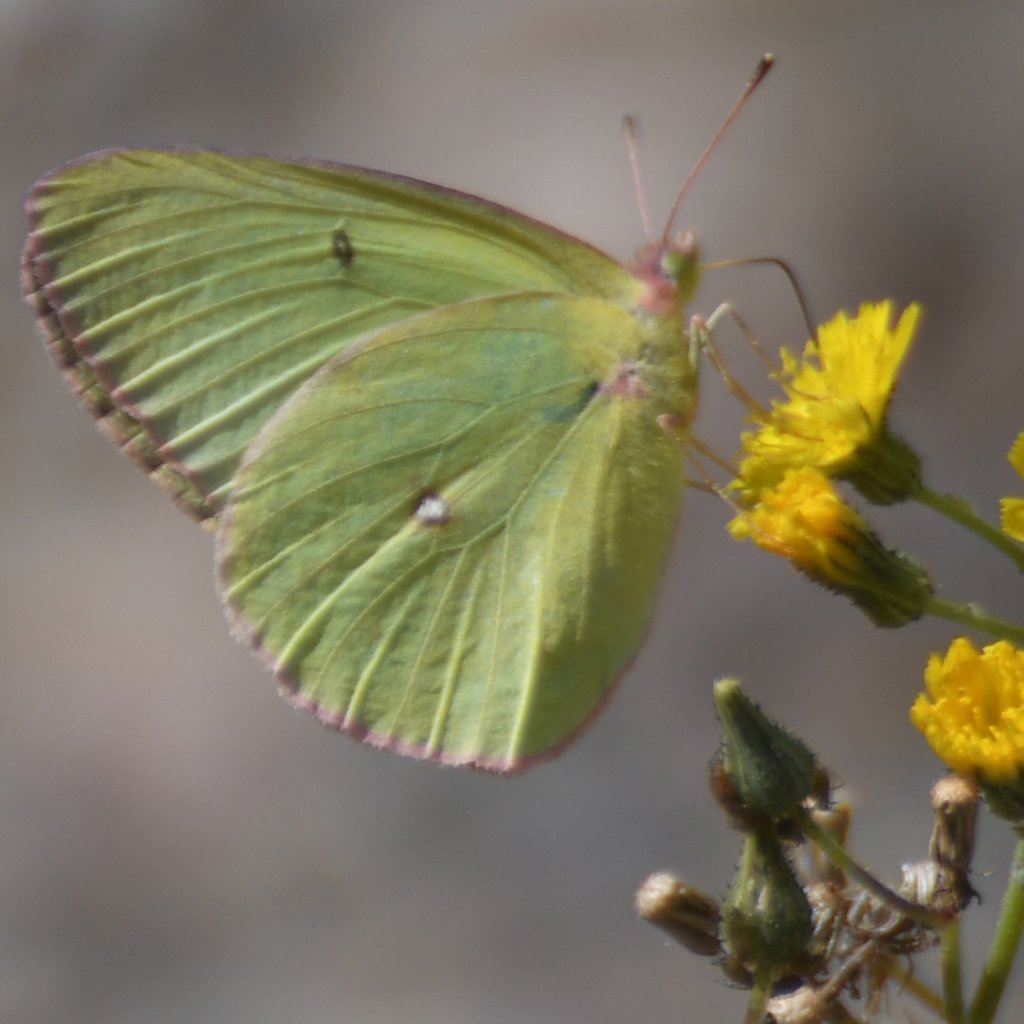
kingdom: Animalia
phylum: Arthropoda
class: Insecta
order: Lepidoptera
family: Pieridae
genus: Colias
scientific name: Colias interior
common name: Pink-edged Sulphur
